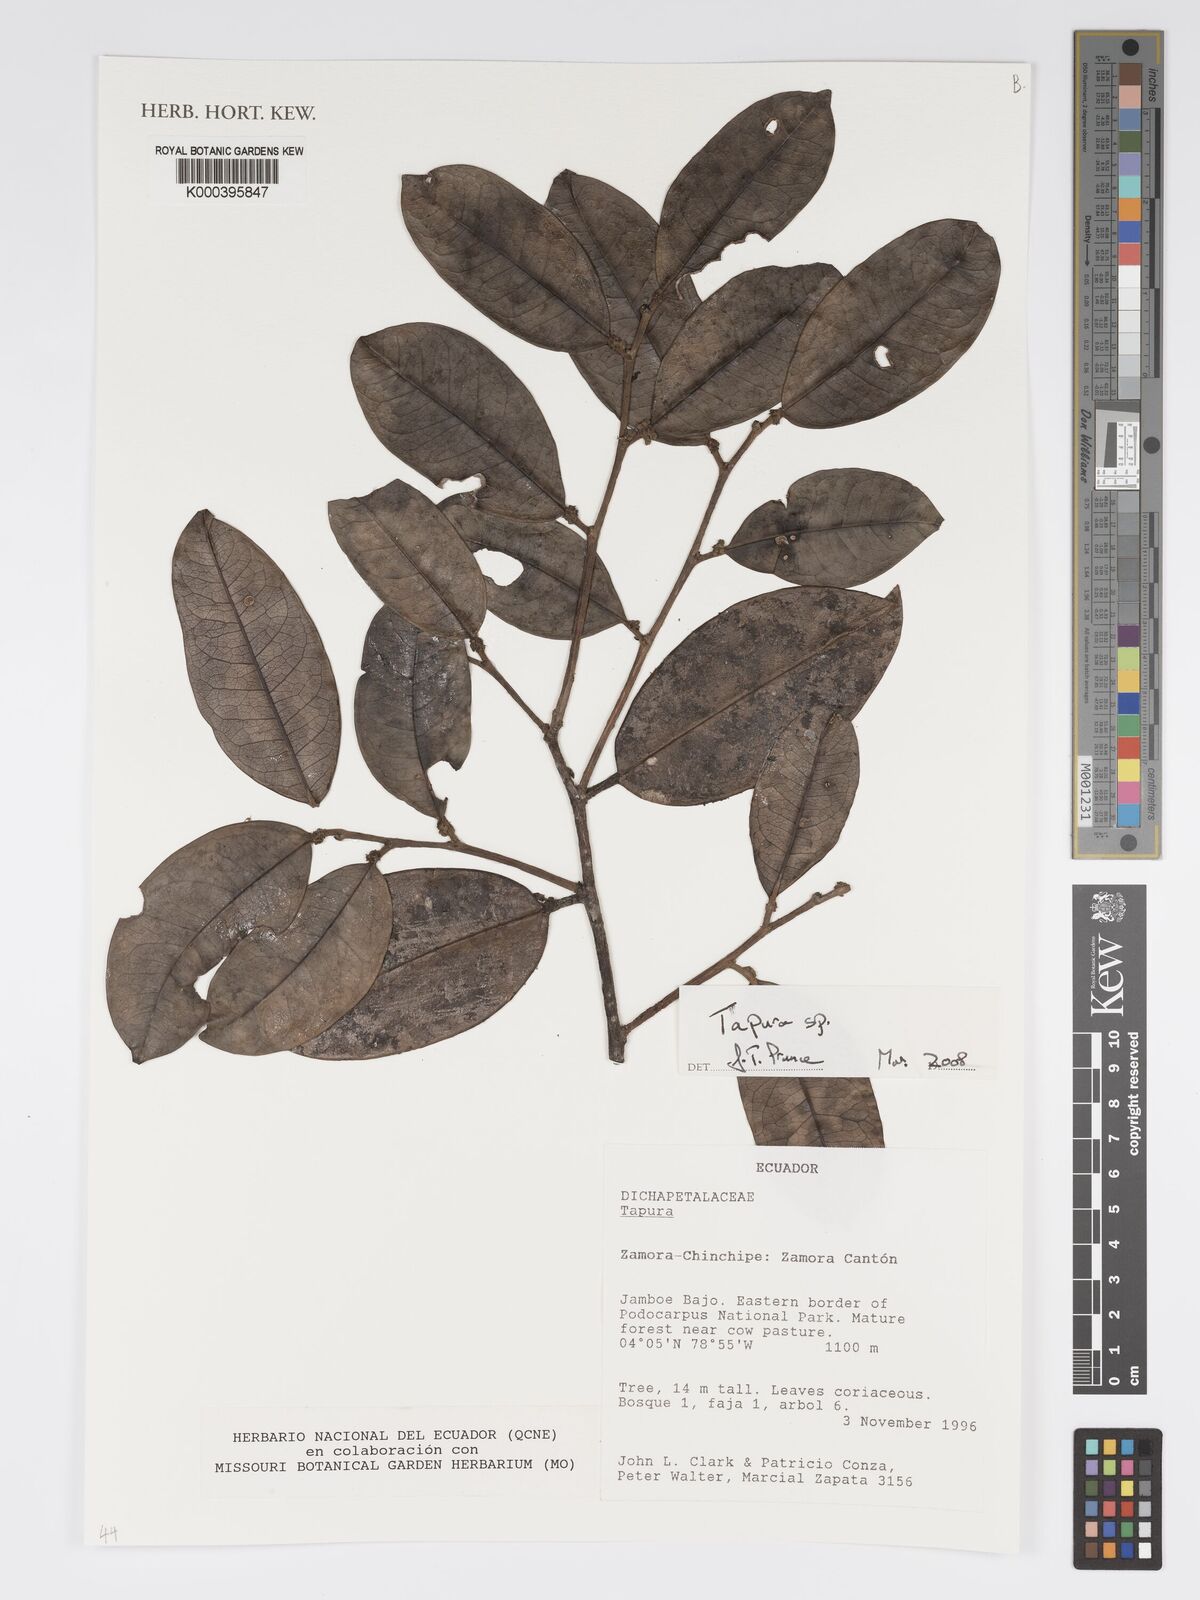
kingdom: Plantae
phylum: Tracheophyta
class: Magnoliopsida
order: Malpighiales
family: Dichapetalaceae
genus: Tapura
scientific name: Tapura
